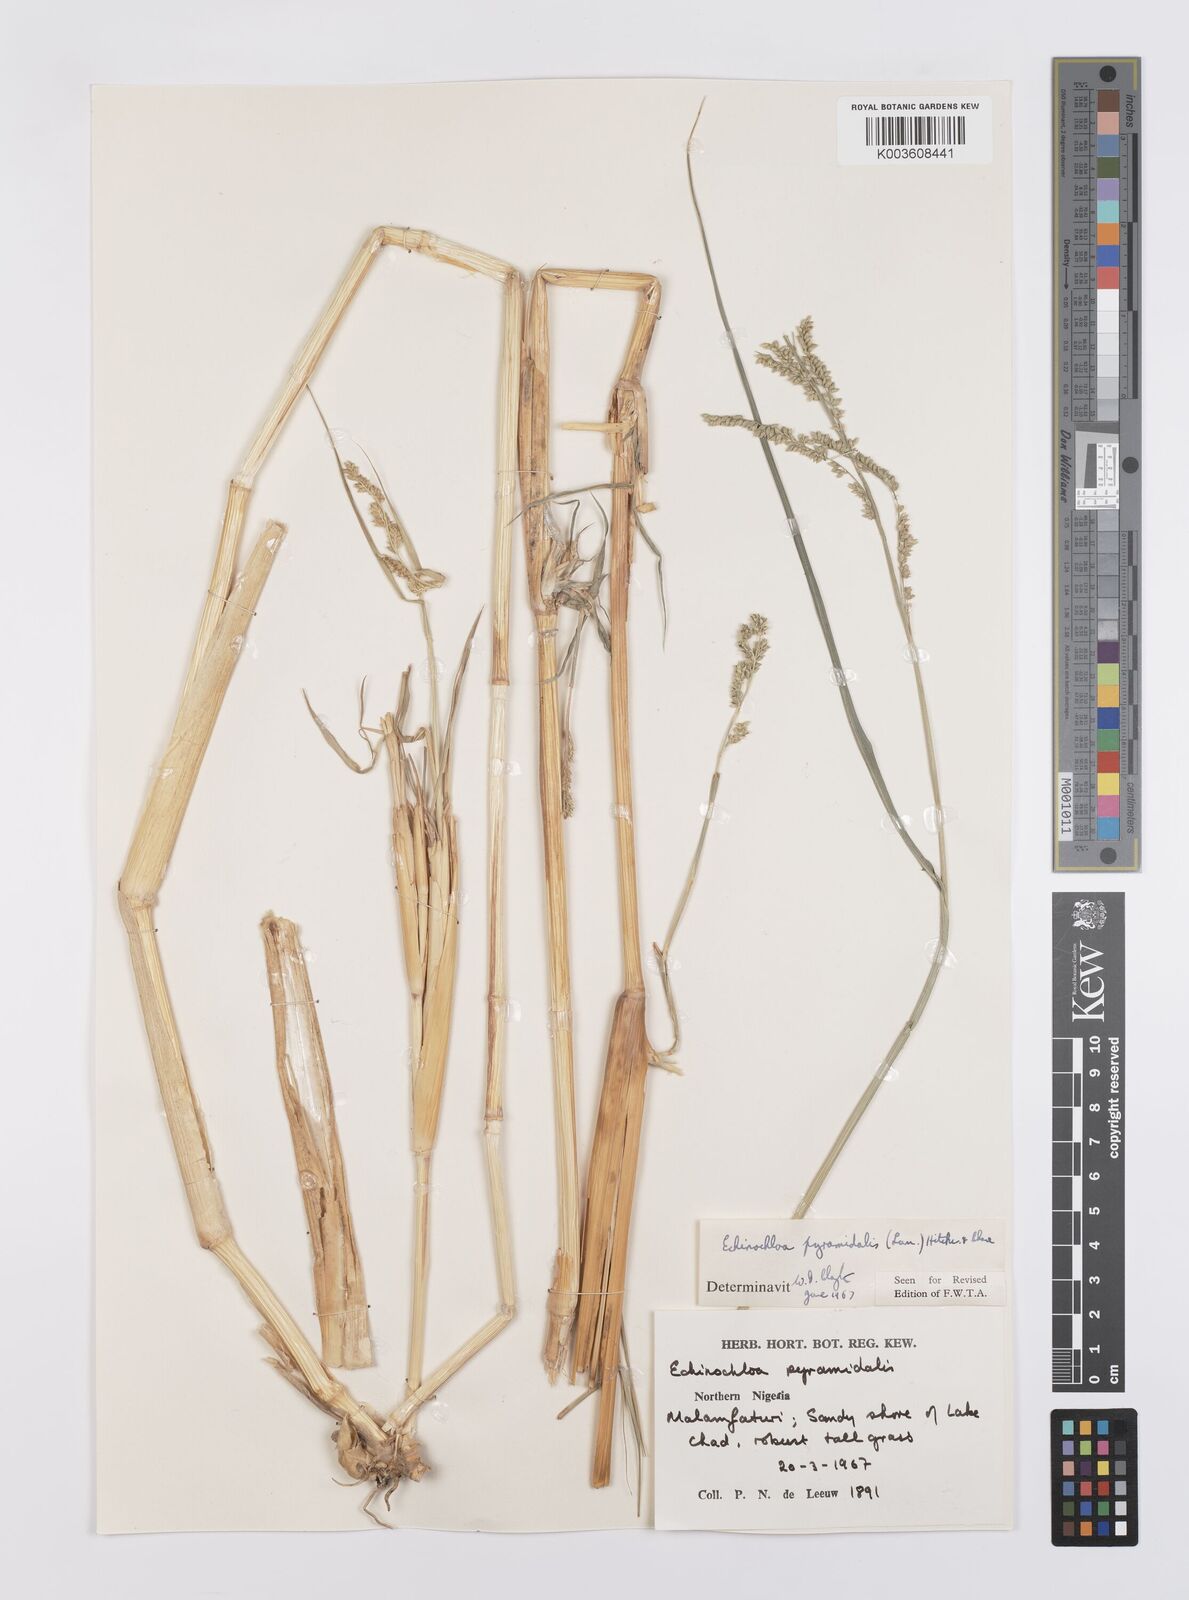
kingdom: Plantae
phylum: Tracheophyta
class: Liliopsida
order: Poales
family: Poaceae
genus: Echinochloa
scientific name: Echinochloa pyramidalis
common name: Antelope grass
